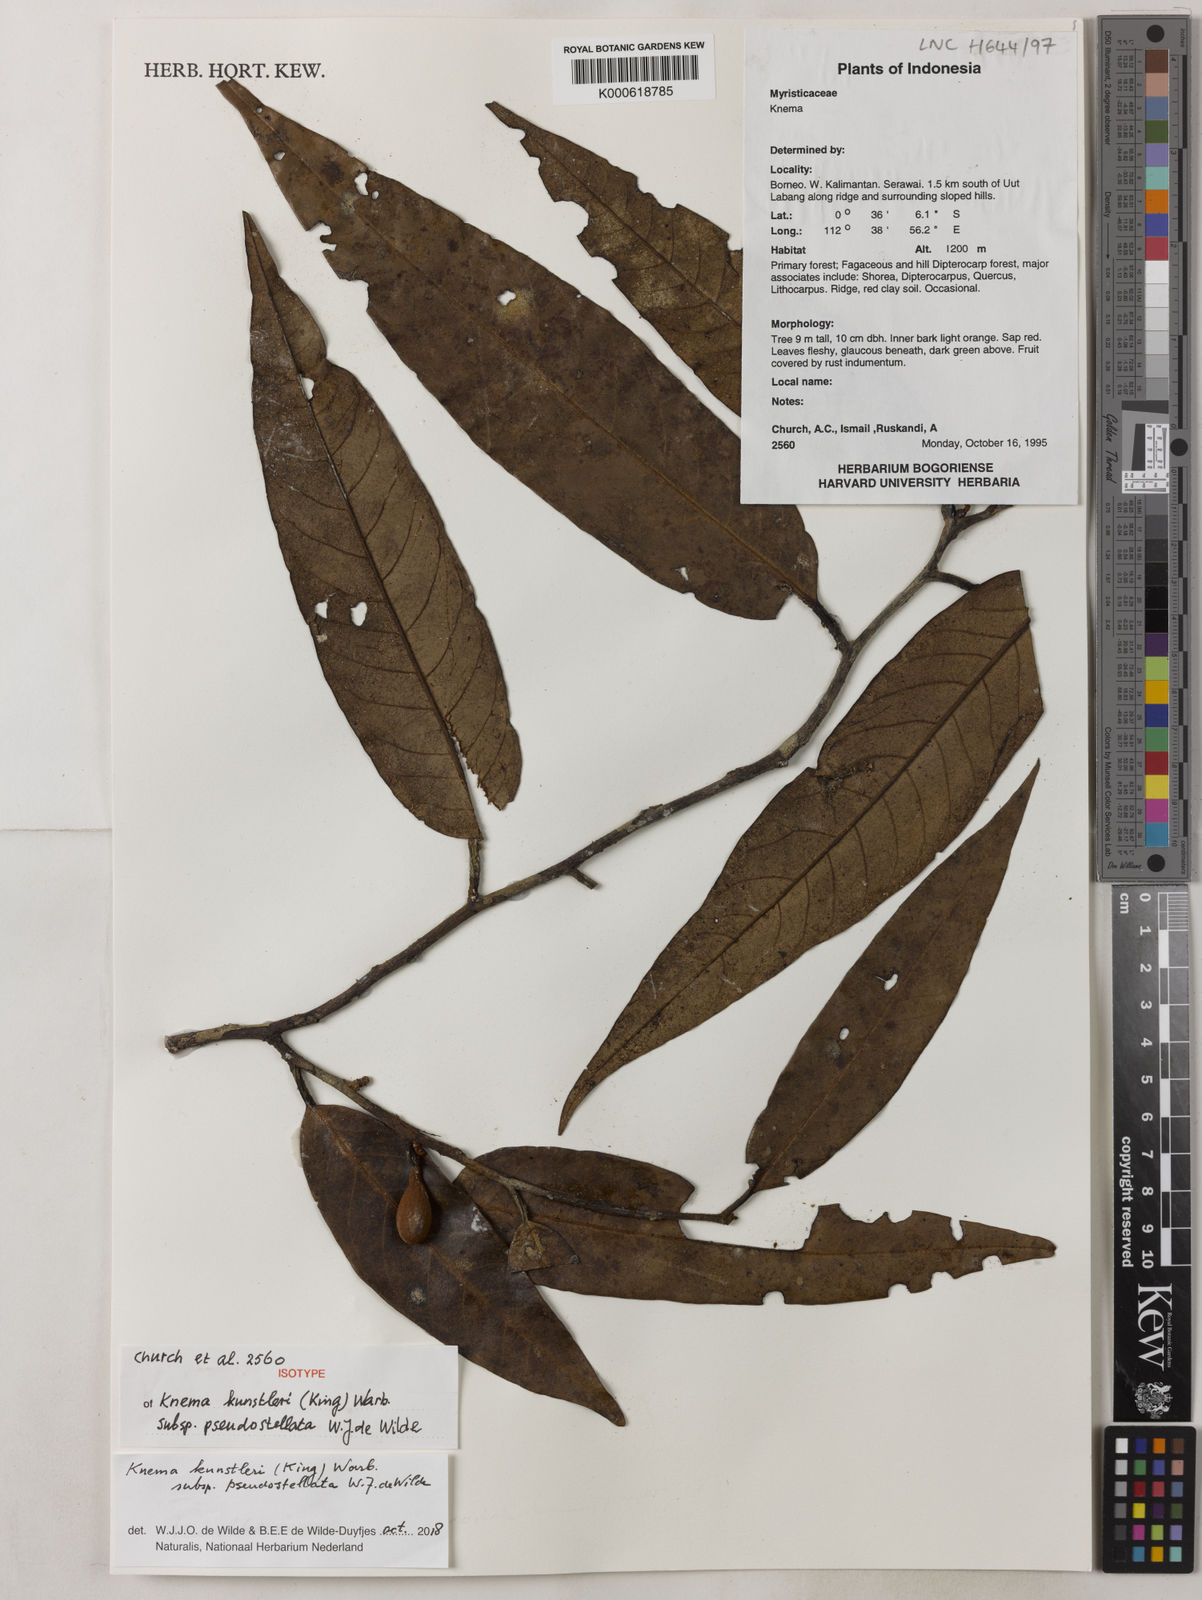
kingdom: Plantae
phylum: Tracheophyta
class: Magnoliopsida
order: Magnoliales
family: Myristicaceae
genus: Knema
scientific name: Knema kunstleri
